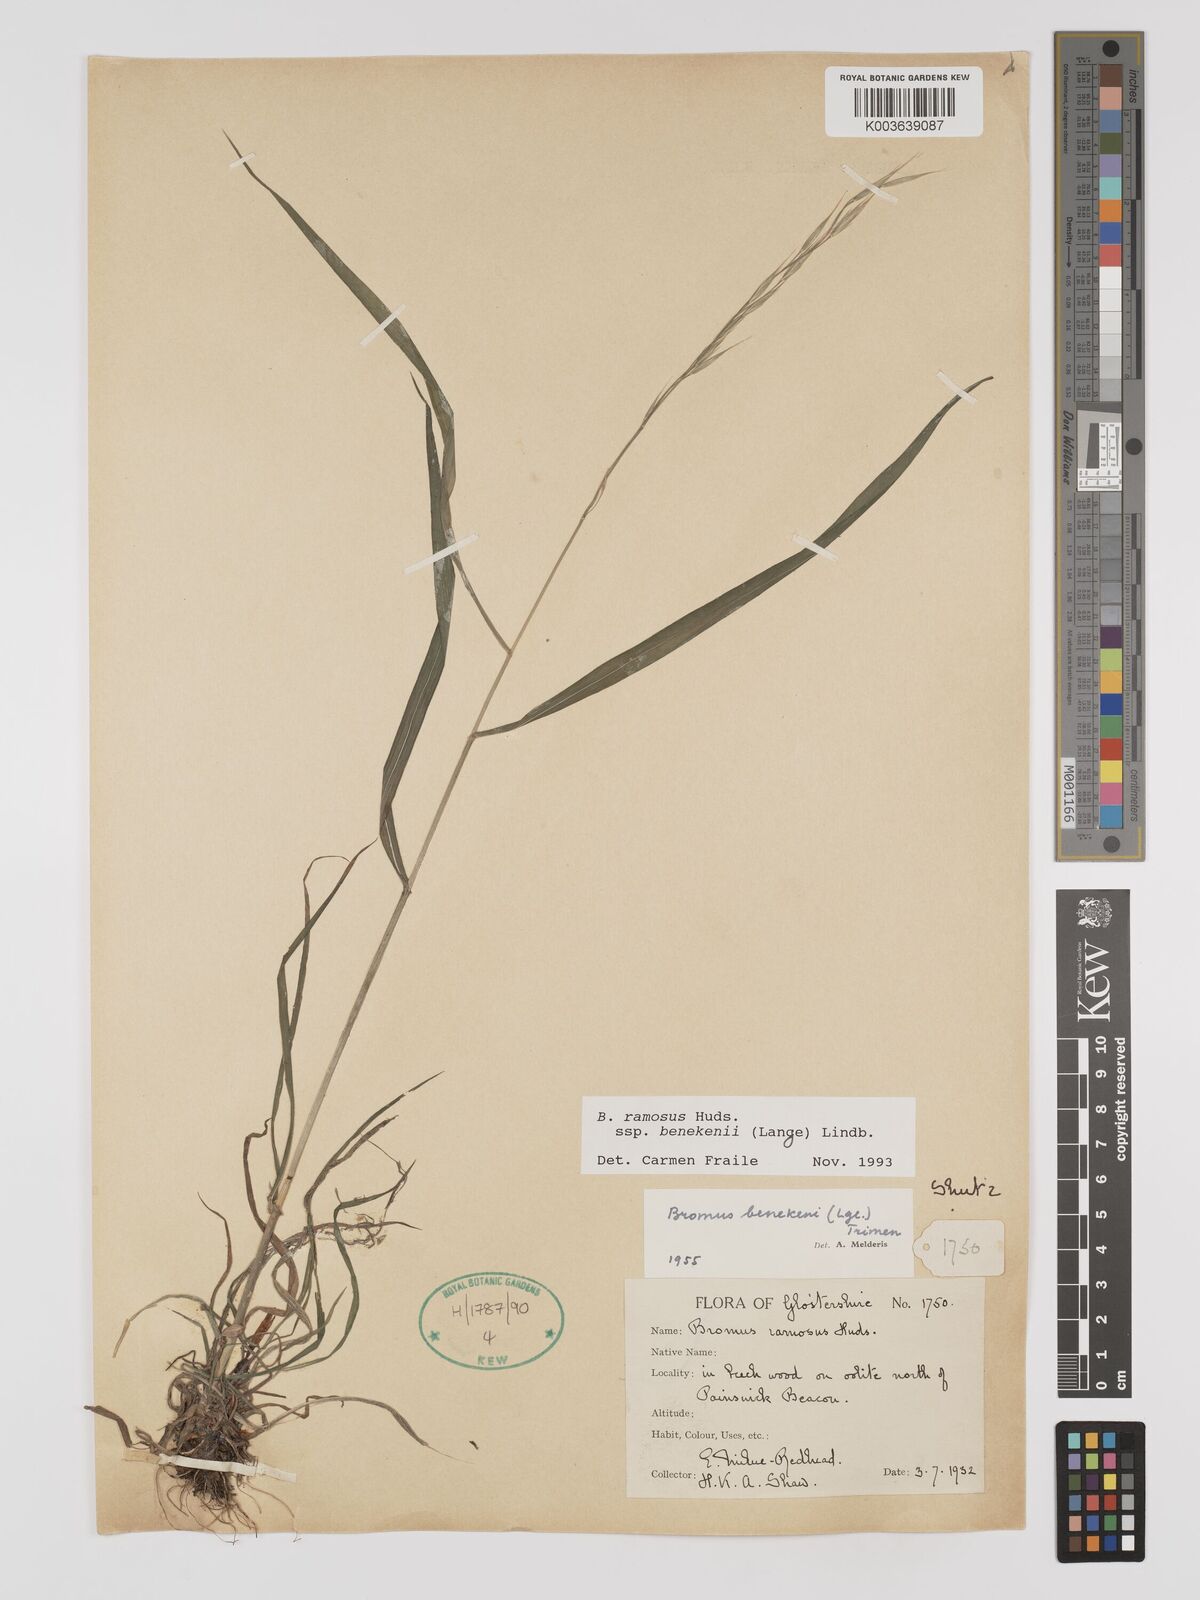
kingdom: Plantae
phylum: Tracheophyta
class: Liliopsida
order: Poales
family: Poaceae
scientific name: Poaceae
